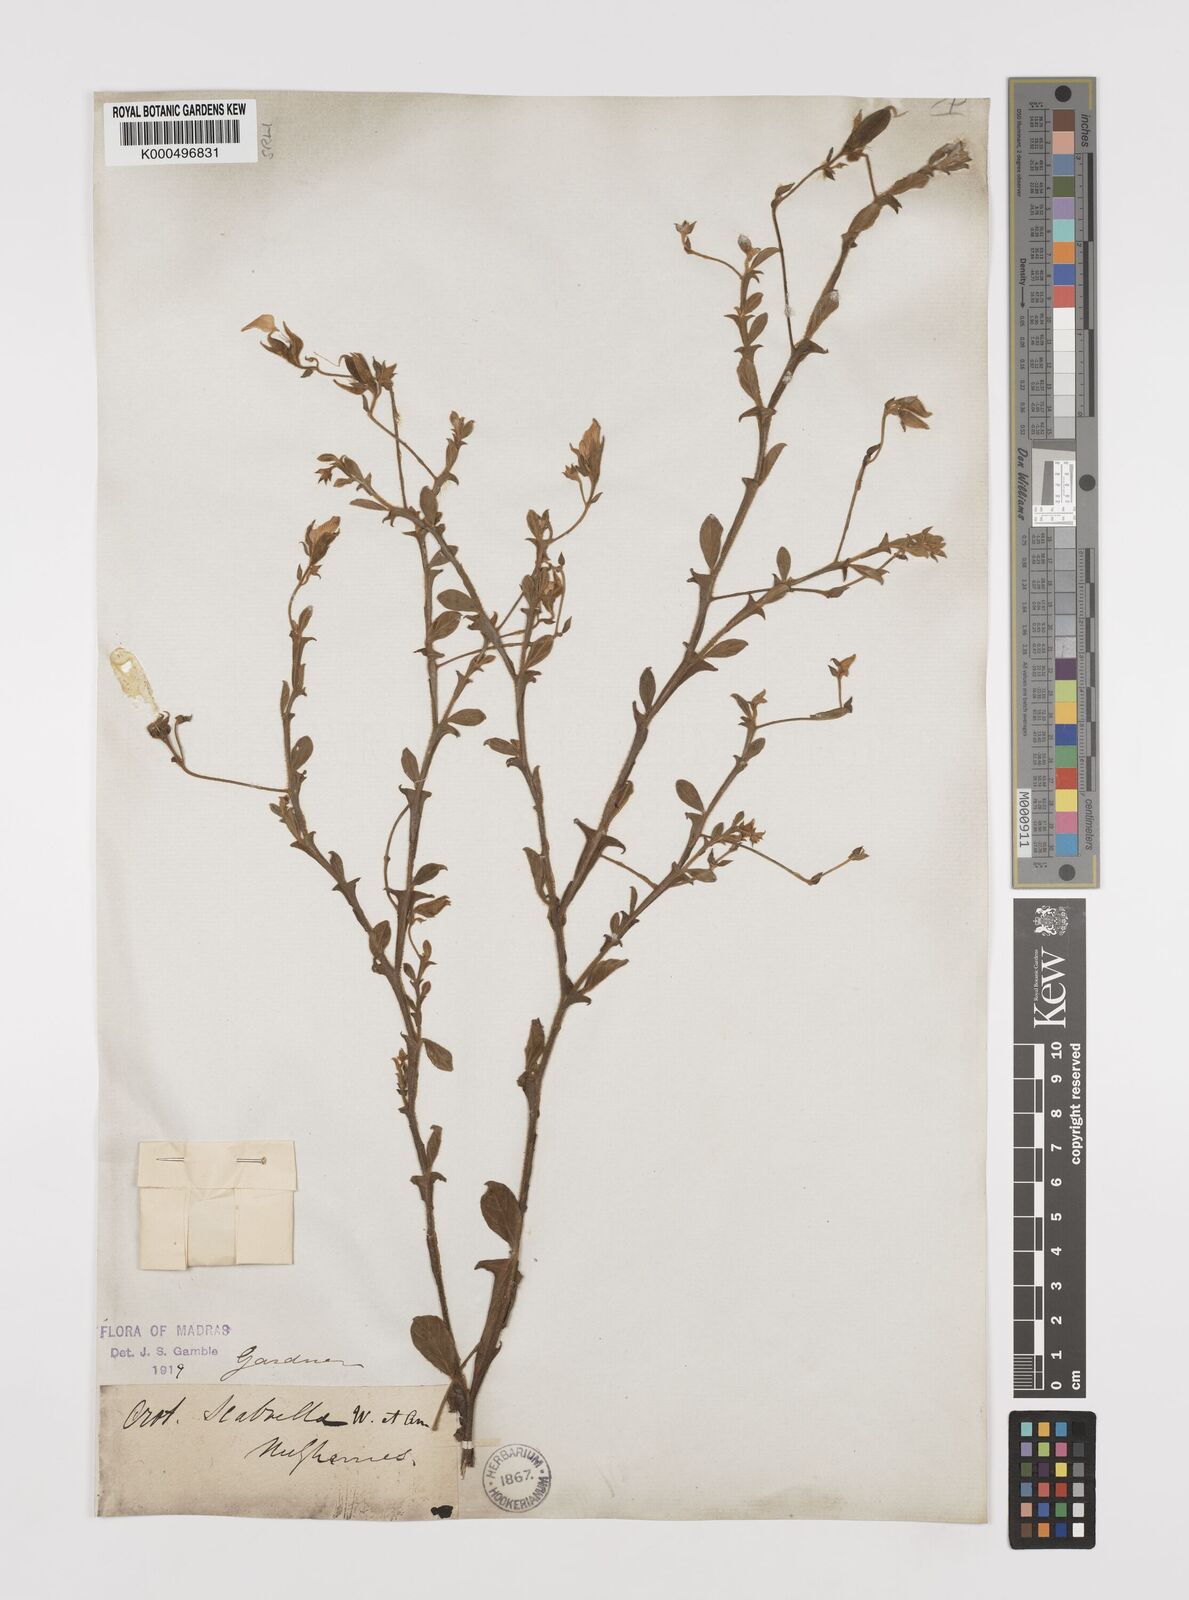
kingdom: Plantae
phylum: Tracheophyta
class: Magnoliopsida
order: Fabales
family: Fabaceae
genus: Crotalaria
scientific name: Crotalaria scabrella
